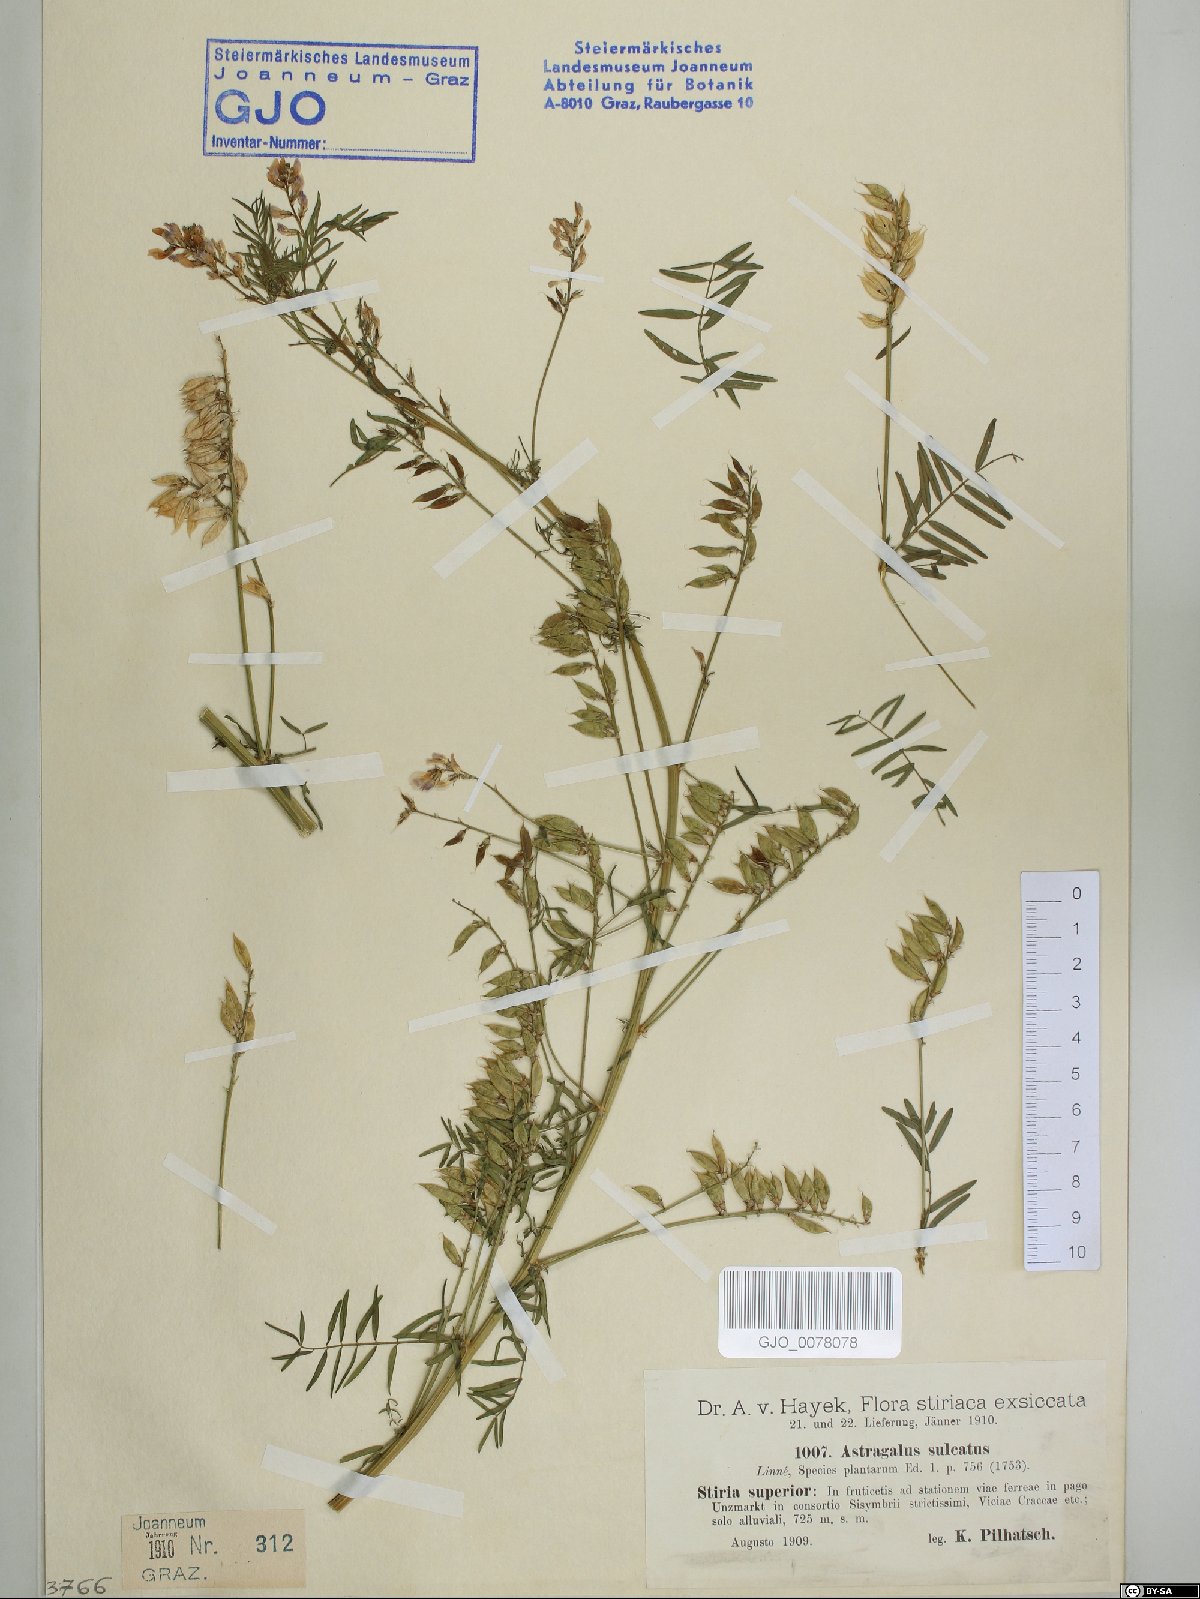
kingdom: Plantae
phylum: Tracheophyta
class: Magnoliopsida
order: Fabales
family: Fabaceae
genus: Astragalus
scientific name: Astragalus sulcatus
